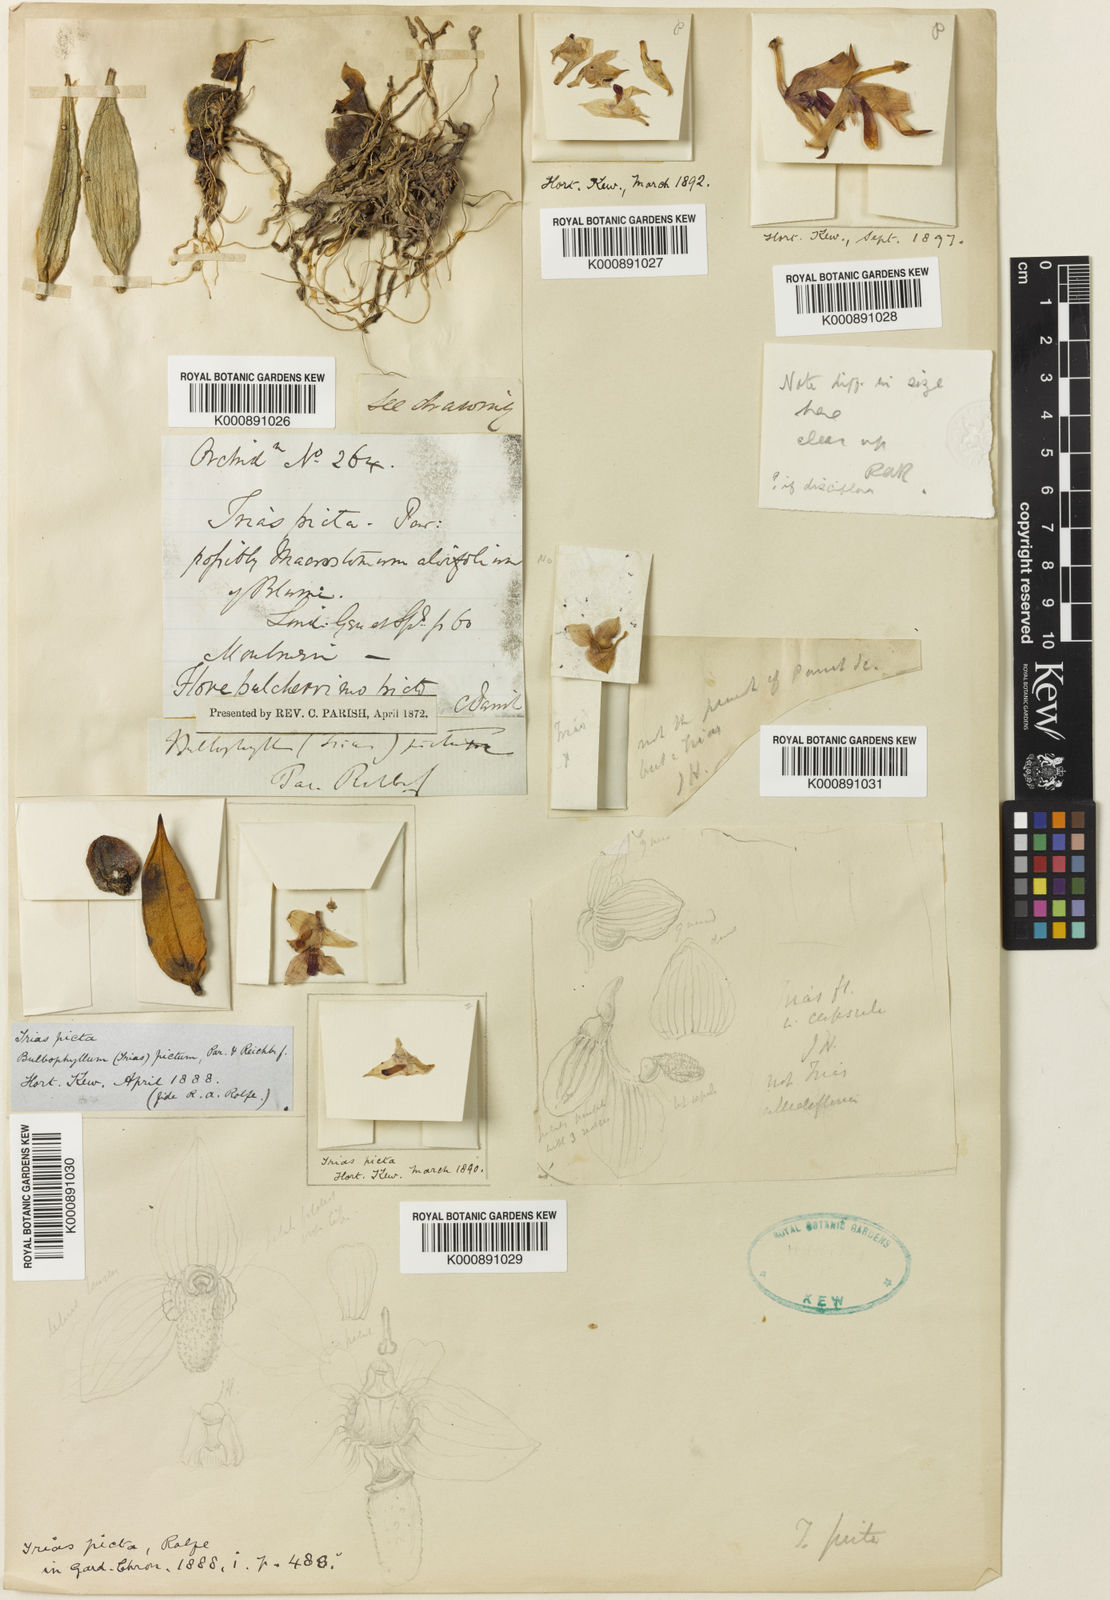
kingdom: Plantae
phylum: Tracheophyta
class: Liliopsida
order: Asparagales
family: Orchidaceae
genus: Bulbophyllum
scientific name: Bulbophyllum oblongum
